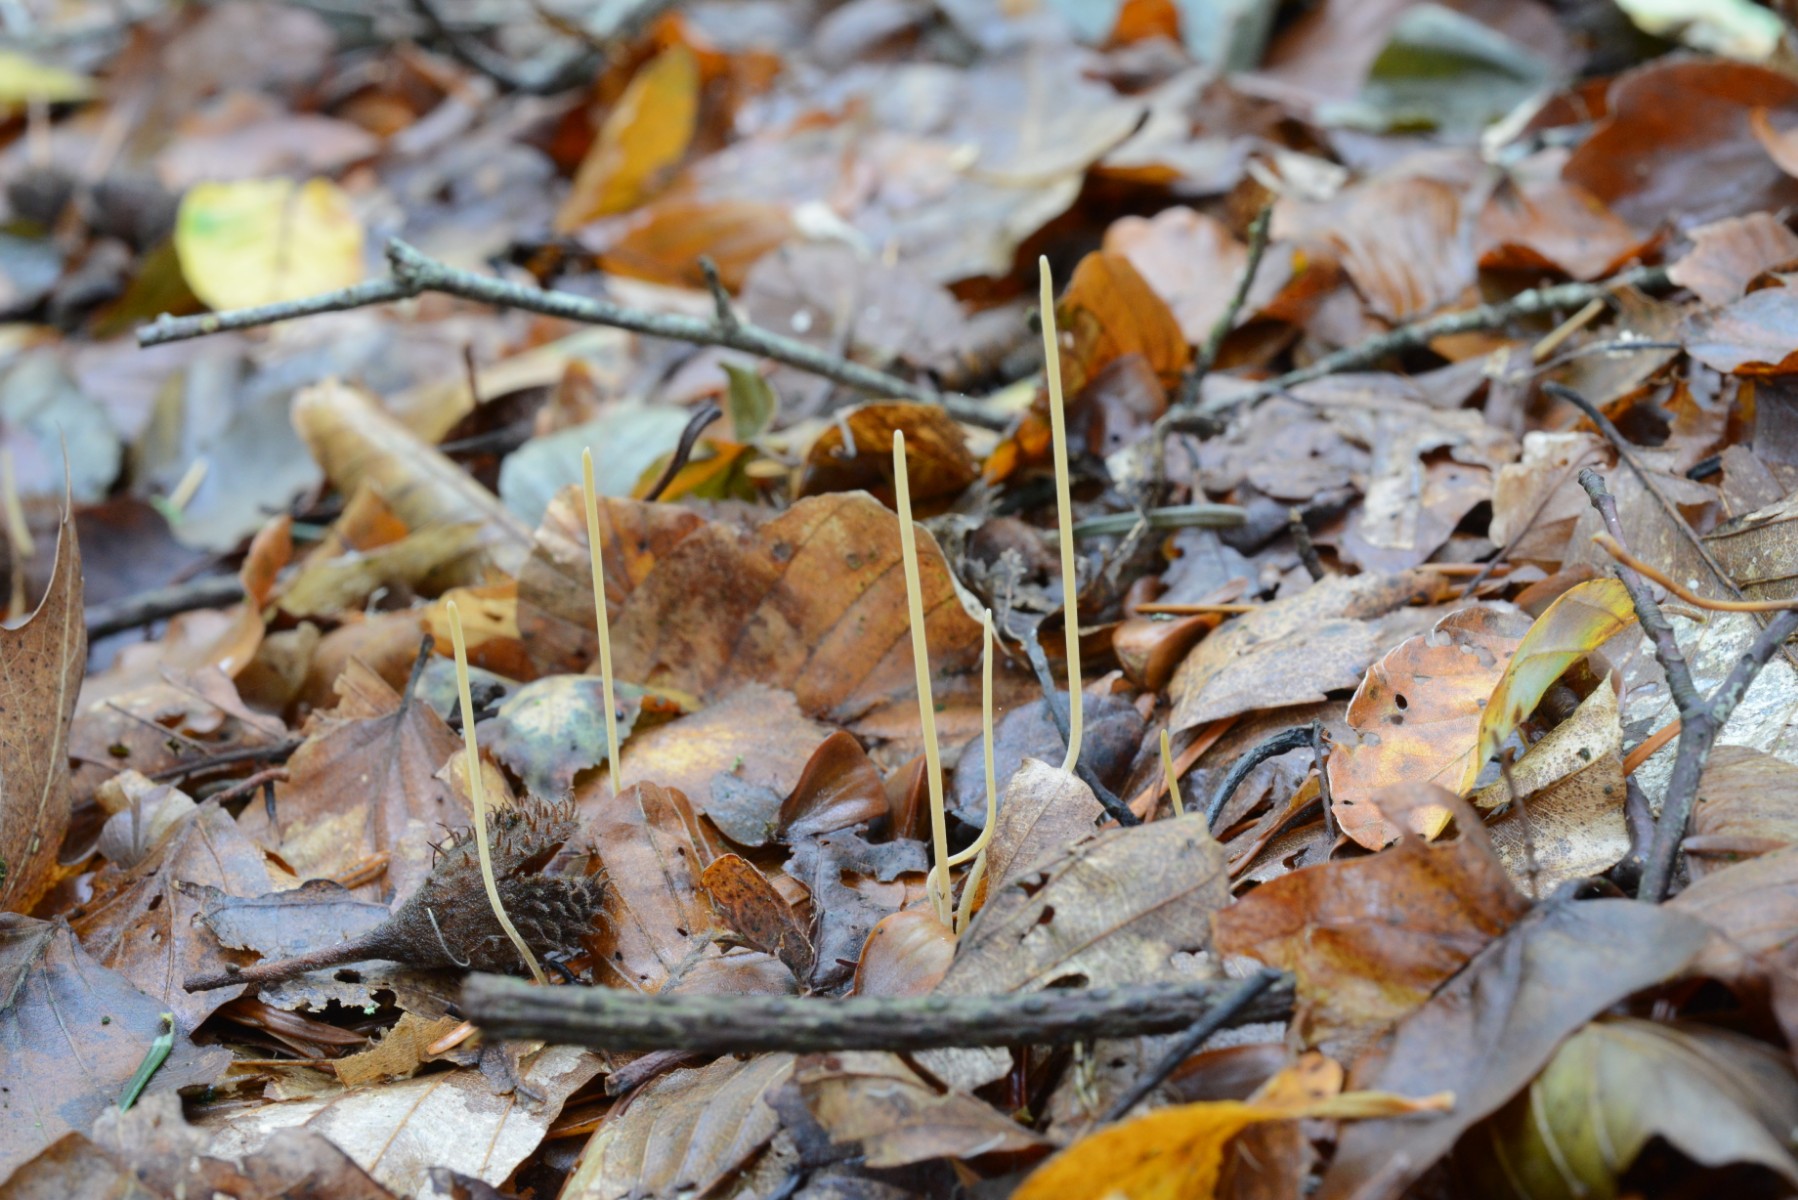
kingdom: Fungi
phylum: Basidiomycota
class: Agaricomycetes
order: Agaricales
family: Typhulaceae
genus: Typhula
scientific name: Typhula juncea
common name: trådagtig rørkølle
